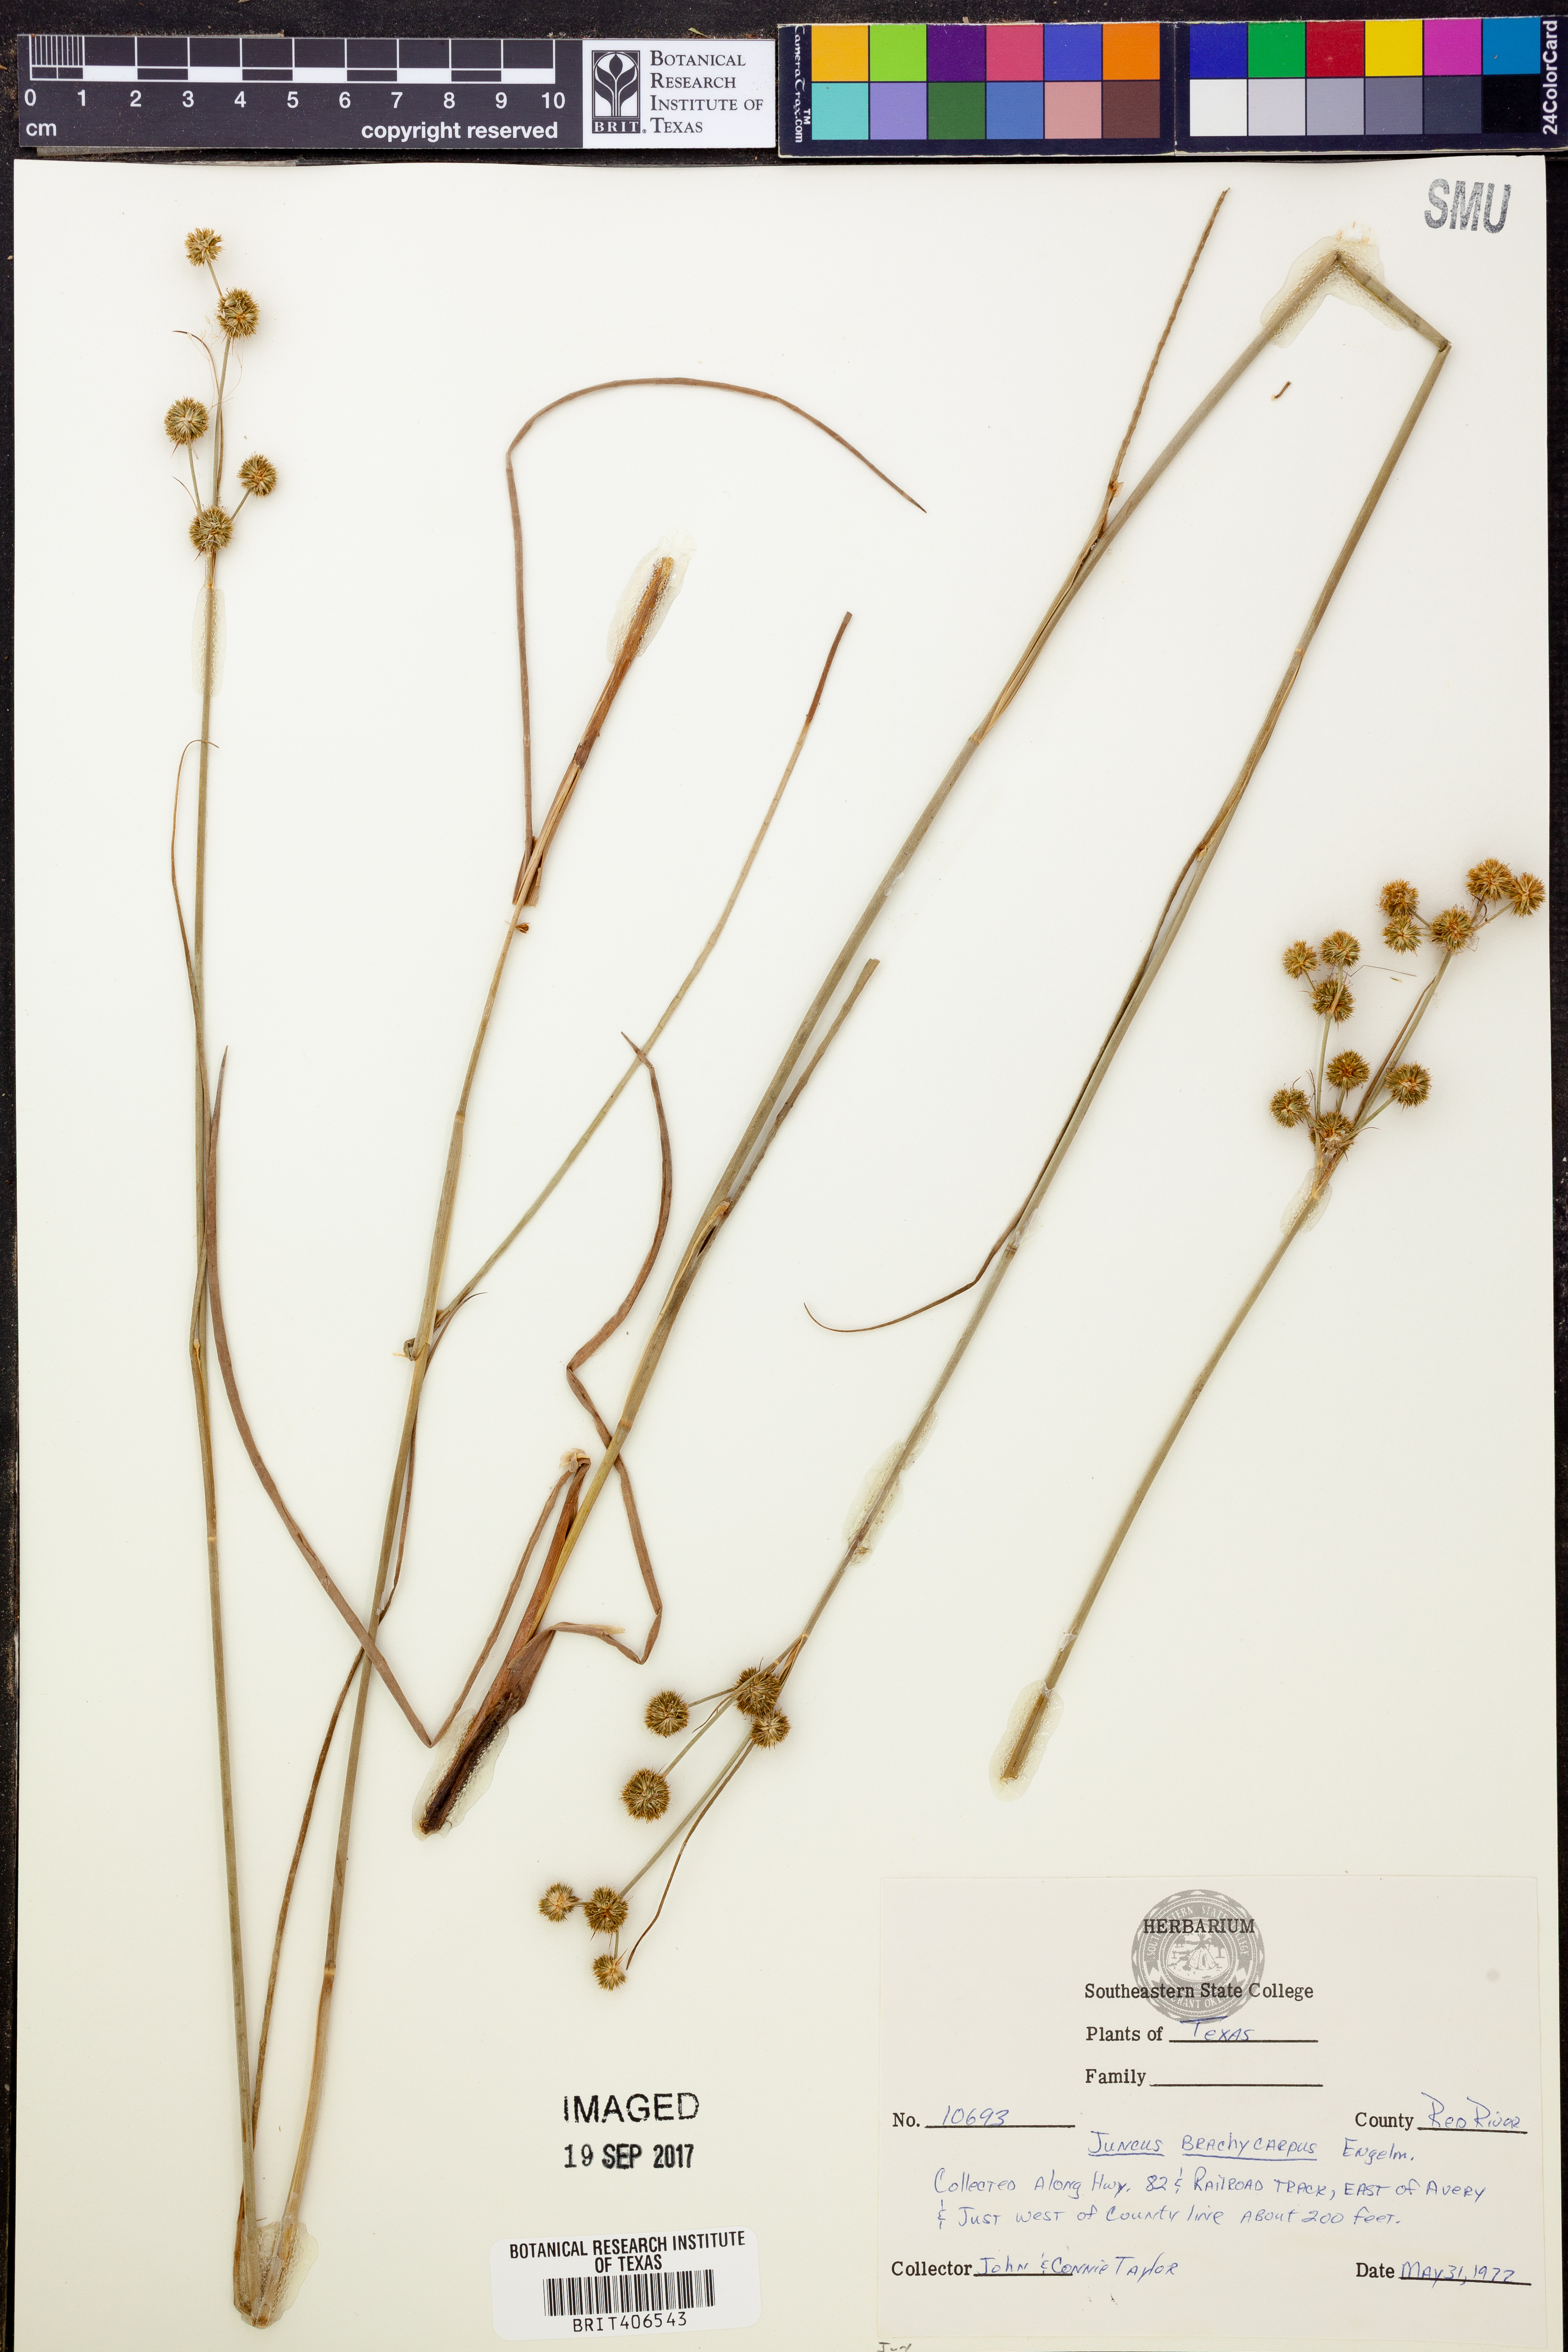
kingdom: Plantae
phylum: Tracheophyta
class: Liliopsida
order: Poales
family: Juncaceae
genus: Juncus
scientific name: Juncus brachycarpus
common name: Shore rush
